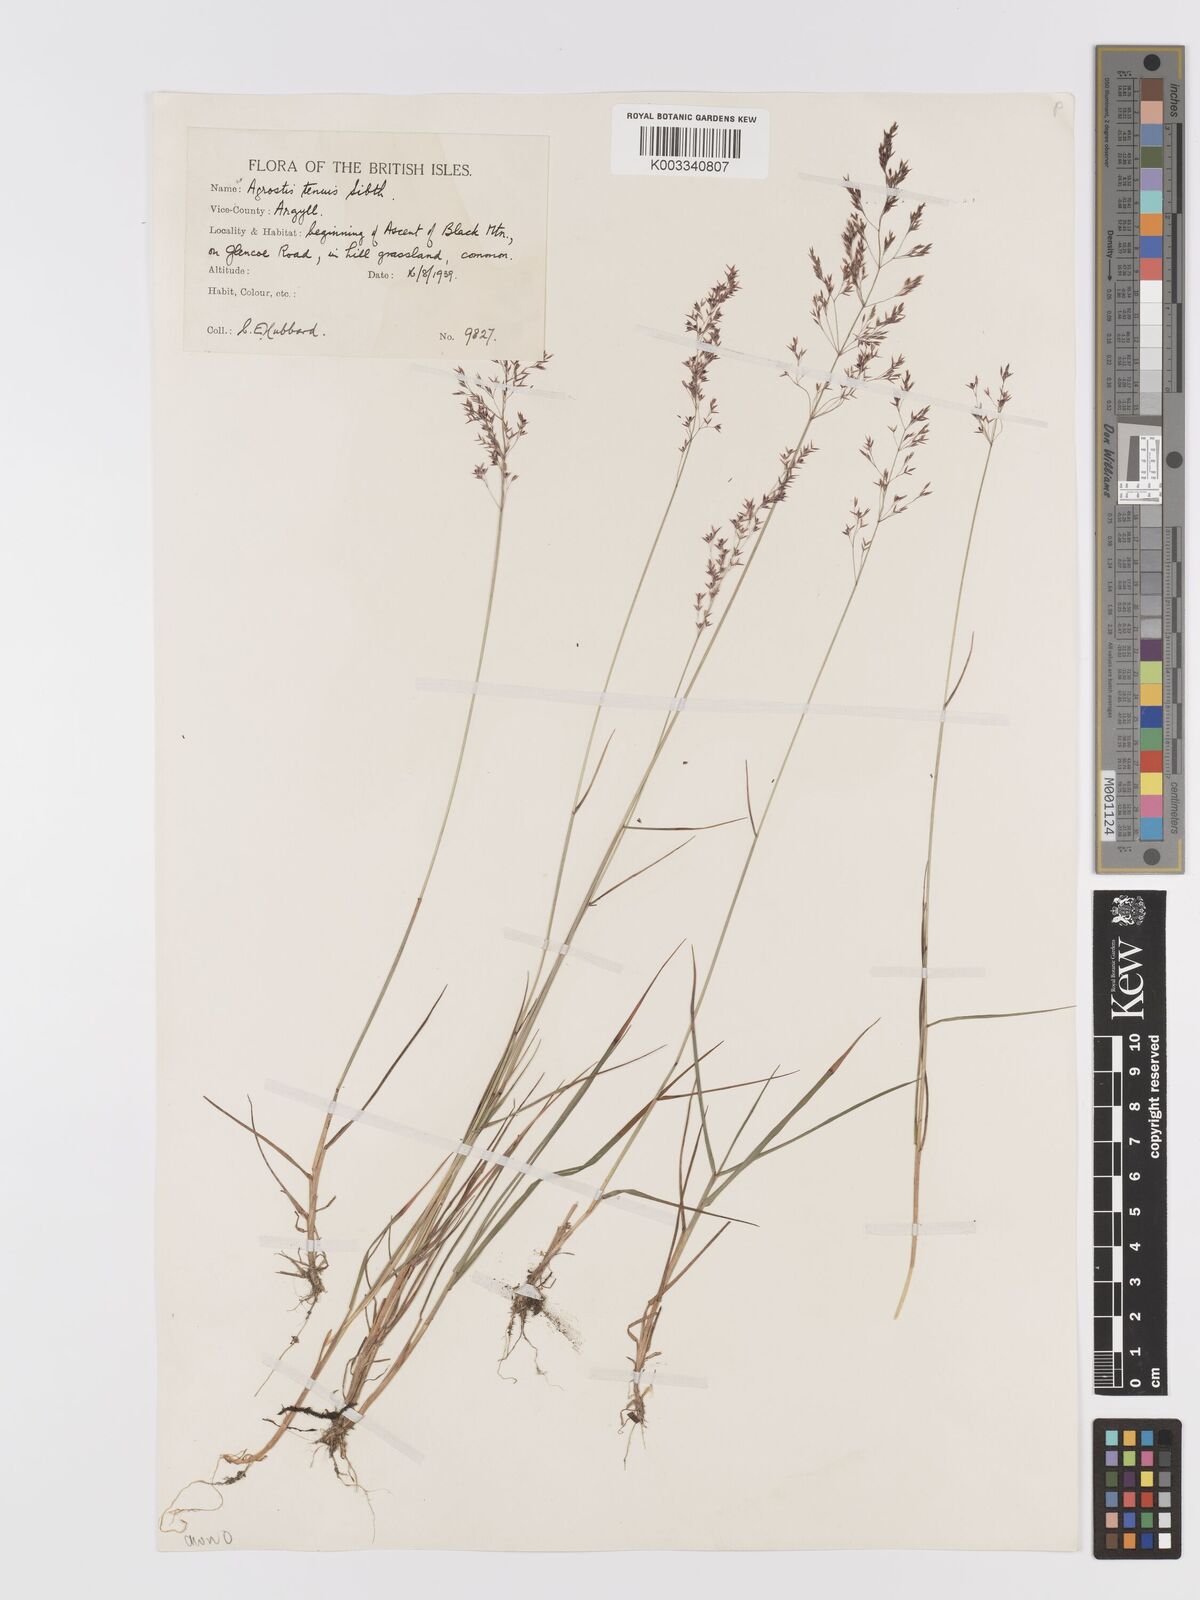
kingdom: Plantae
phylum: Tracheophyta
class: Liliopsida
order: Poales
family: Poaceae
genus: Agrostis
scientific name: Agrostis capillaris
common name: Colonial bentgrass
